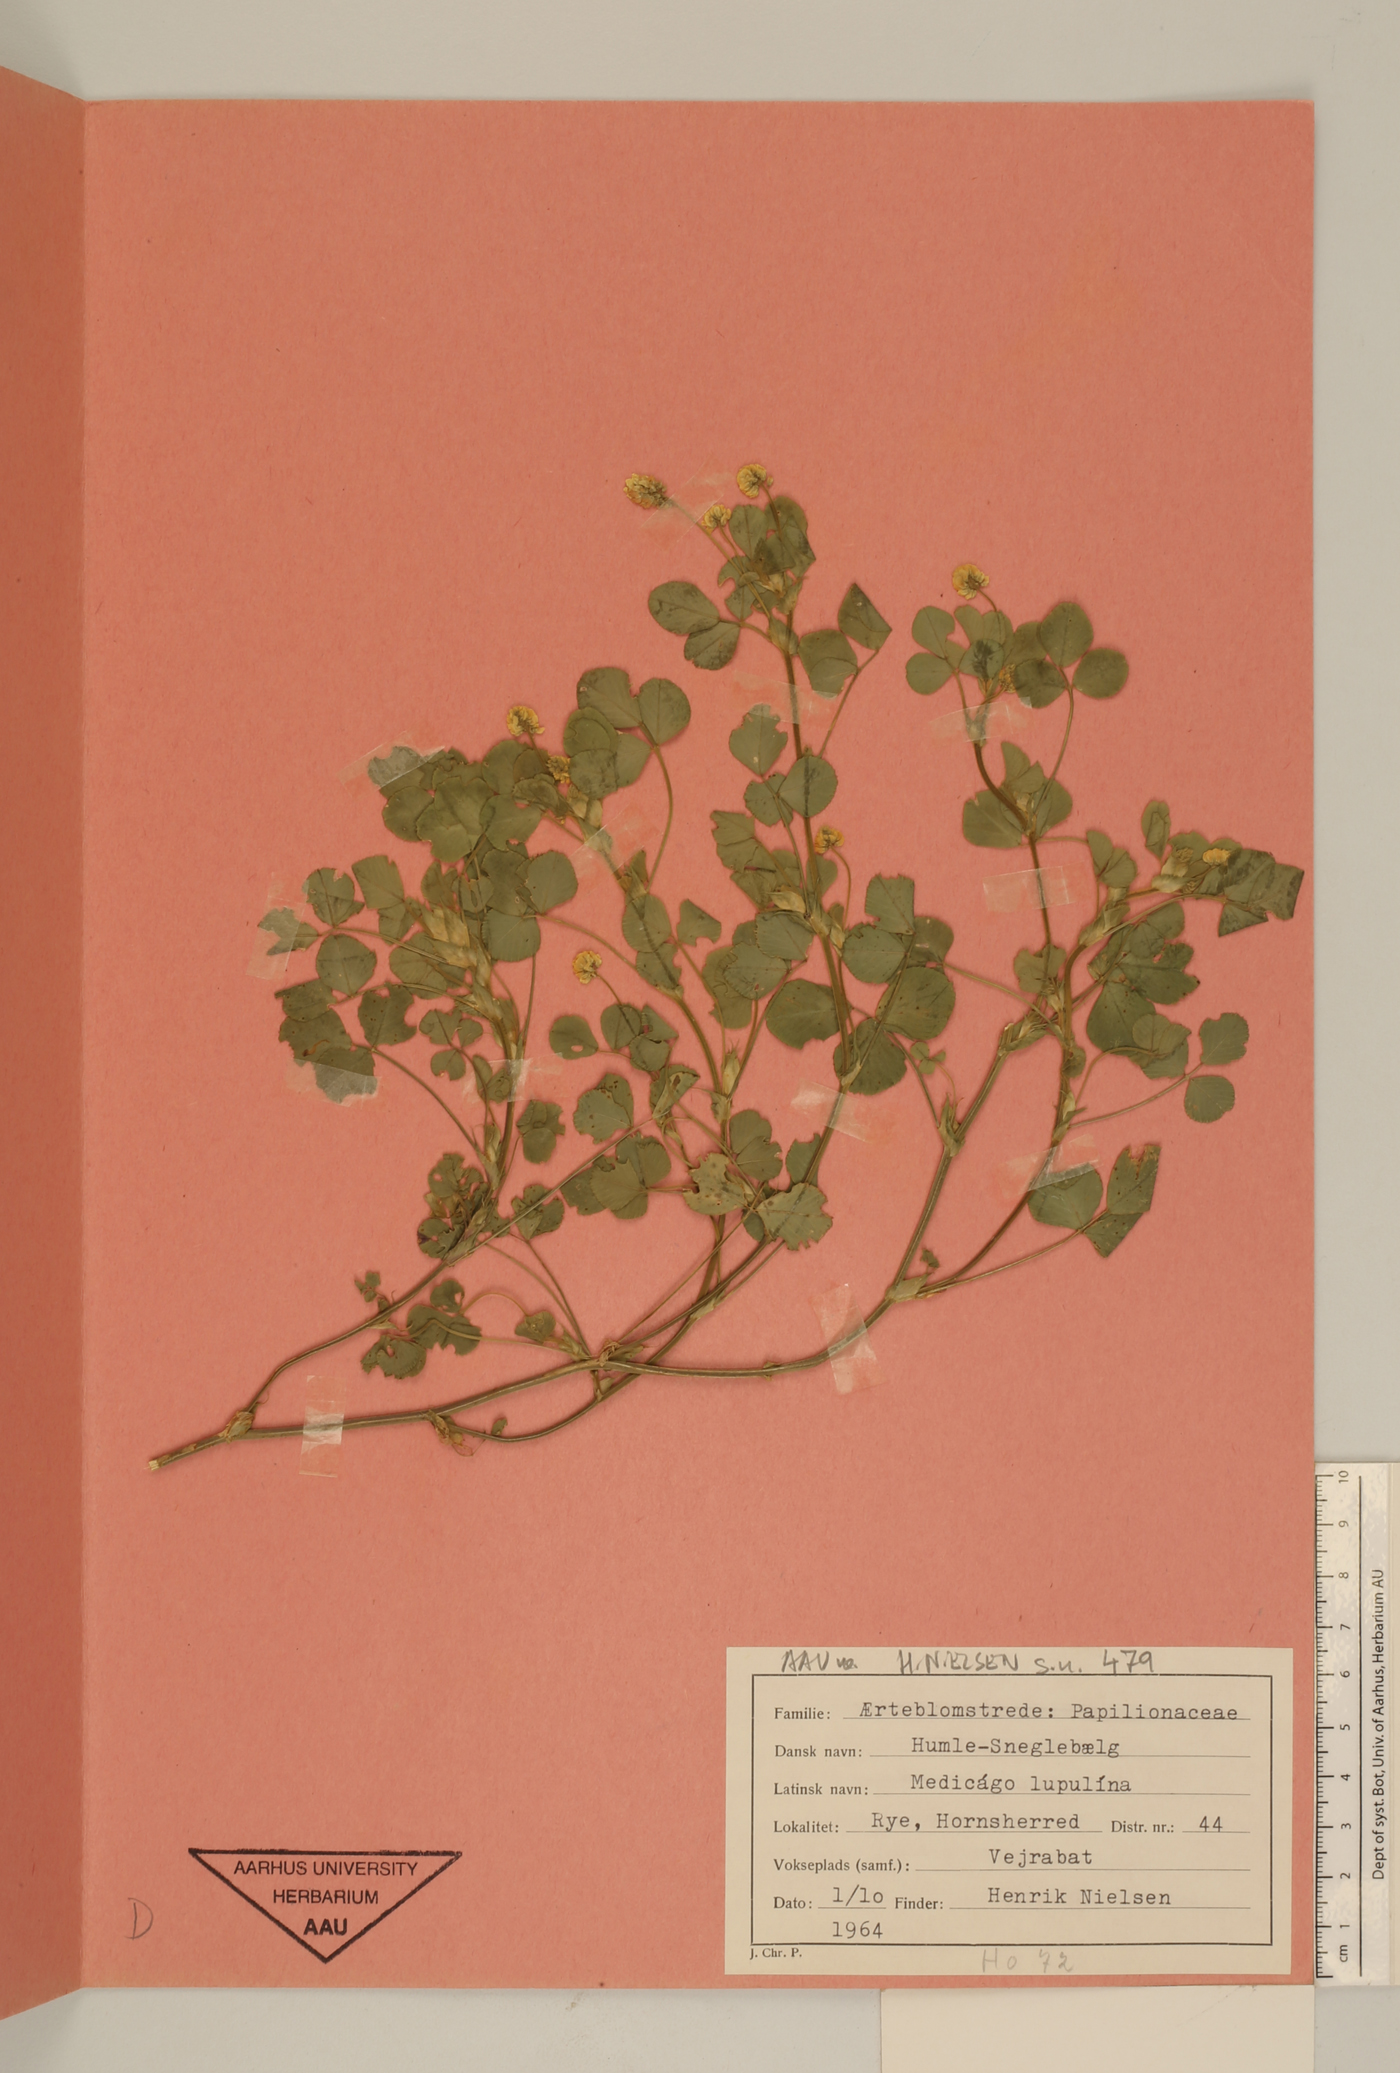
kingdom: Plantae
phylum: Tracheophyta
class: Magnoliopsida
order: Fabales
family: Fabaceae
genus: Medicago
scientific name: Medicago lupulina
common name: Black medick
